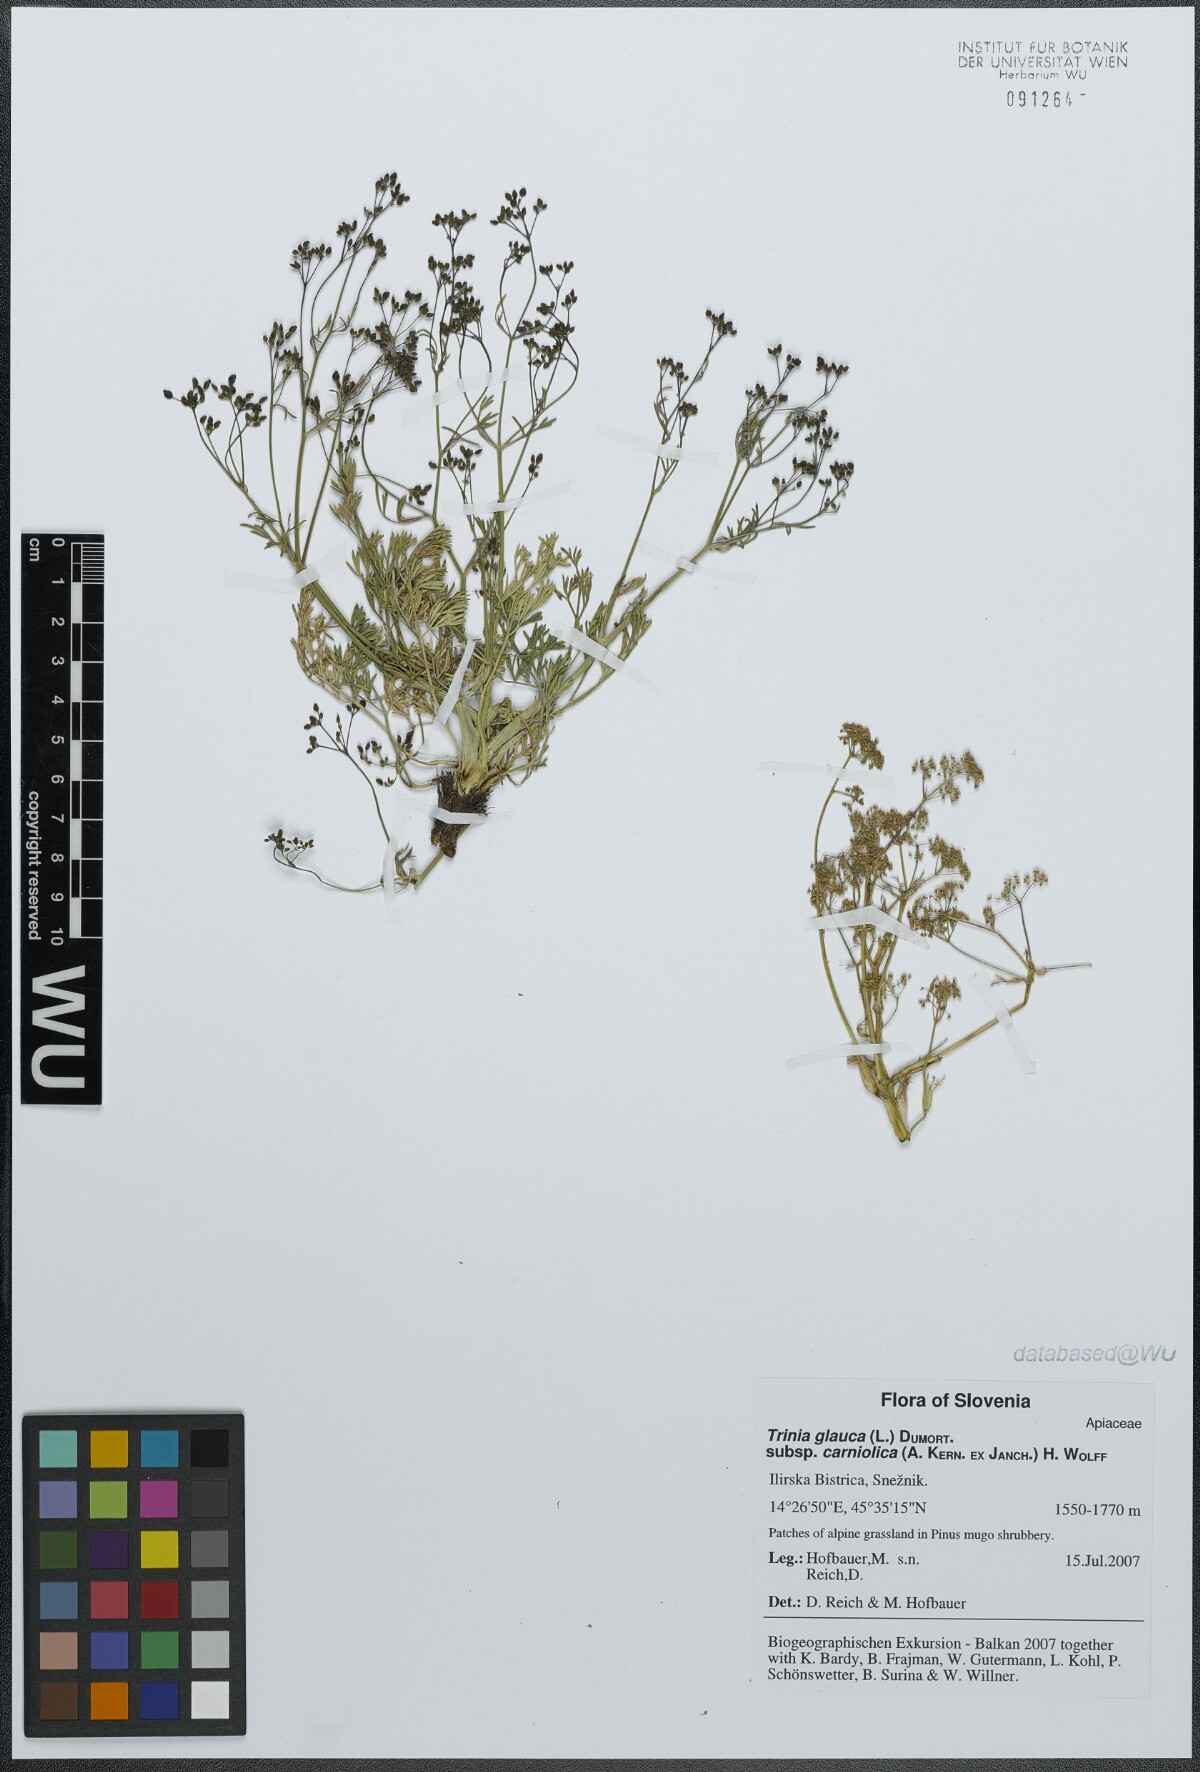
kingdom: Plantae
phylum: Tracheophyta
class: Magnoliopsida
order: Apiales
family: Apiaceae
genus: Trinia
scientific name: Trinia glauca
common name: Honewort
